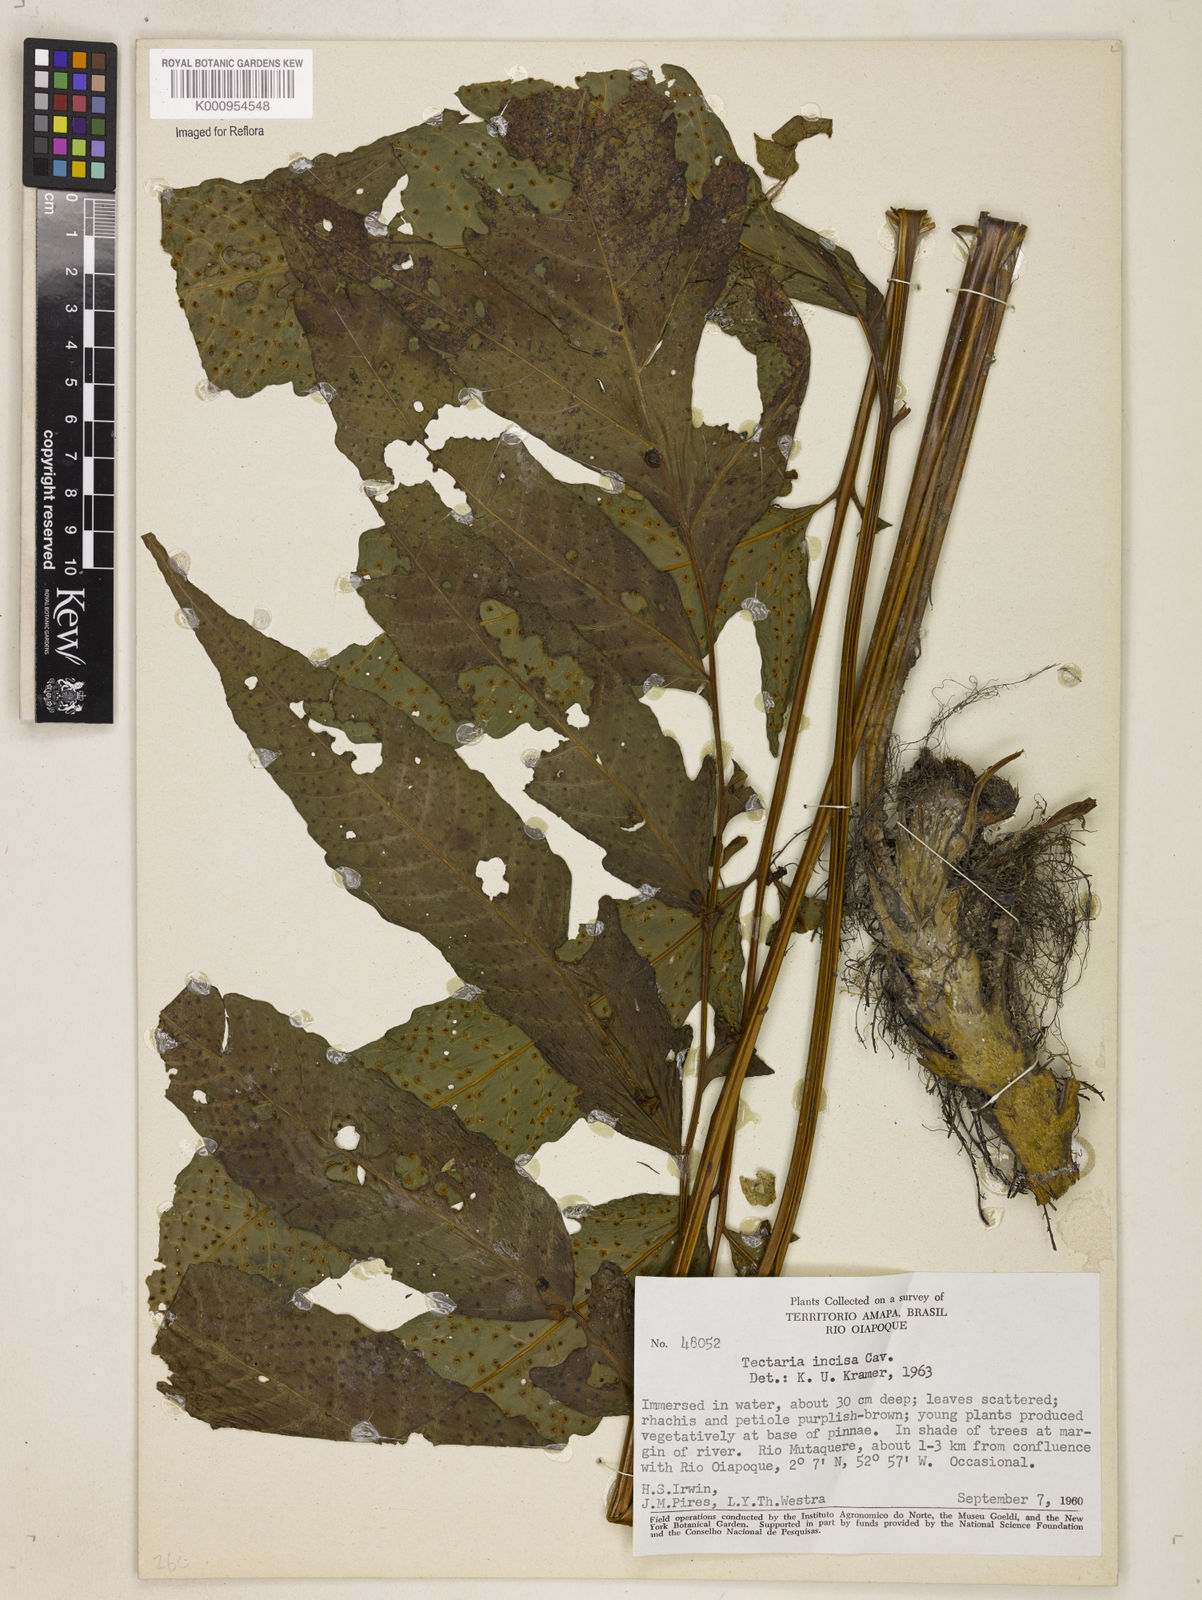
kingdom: Plantae
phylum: Tracheophyta
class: Polypodiopsida
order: Polypodiales
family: Tectariaceae
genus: Tectaria
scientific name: Tectaria incisa
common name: Incised halberd fern
